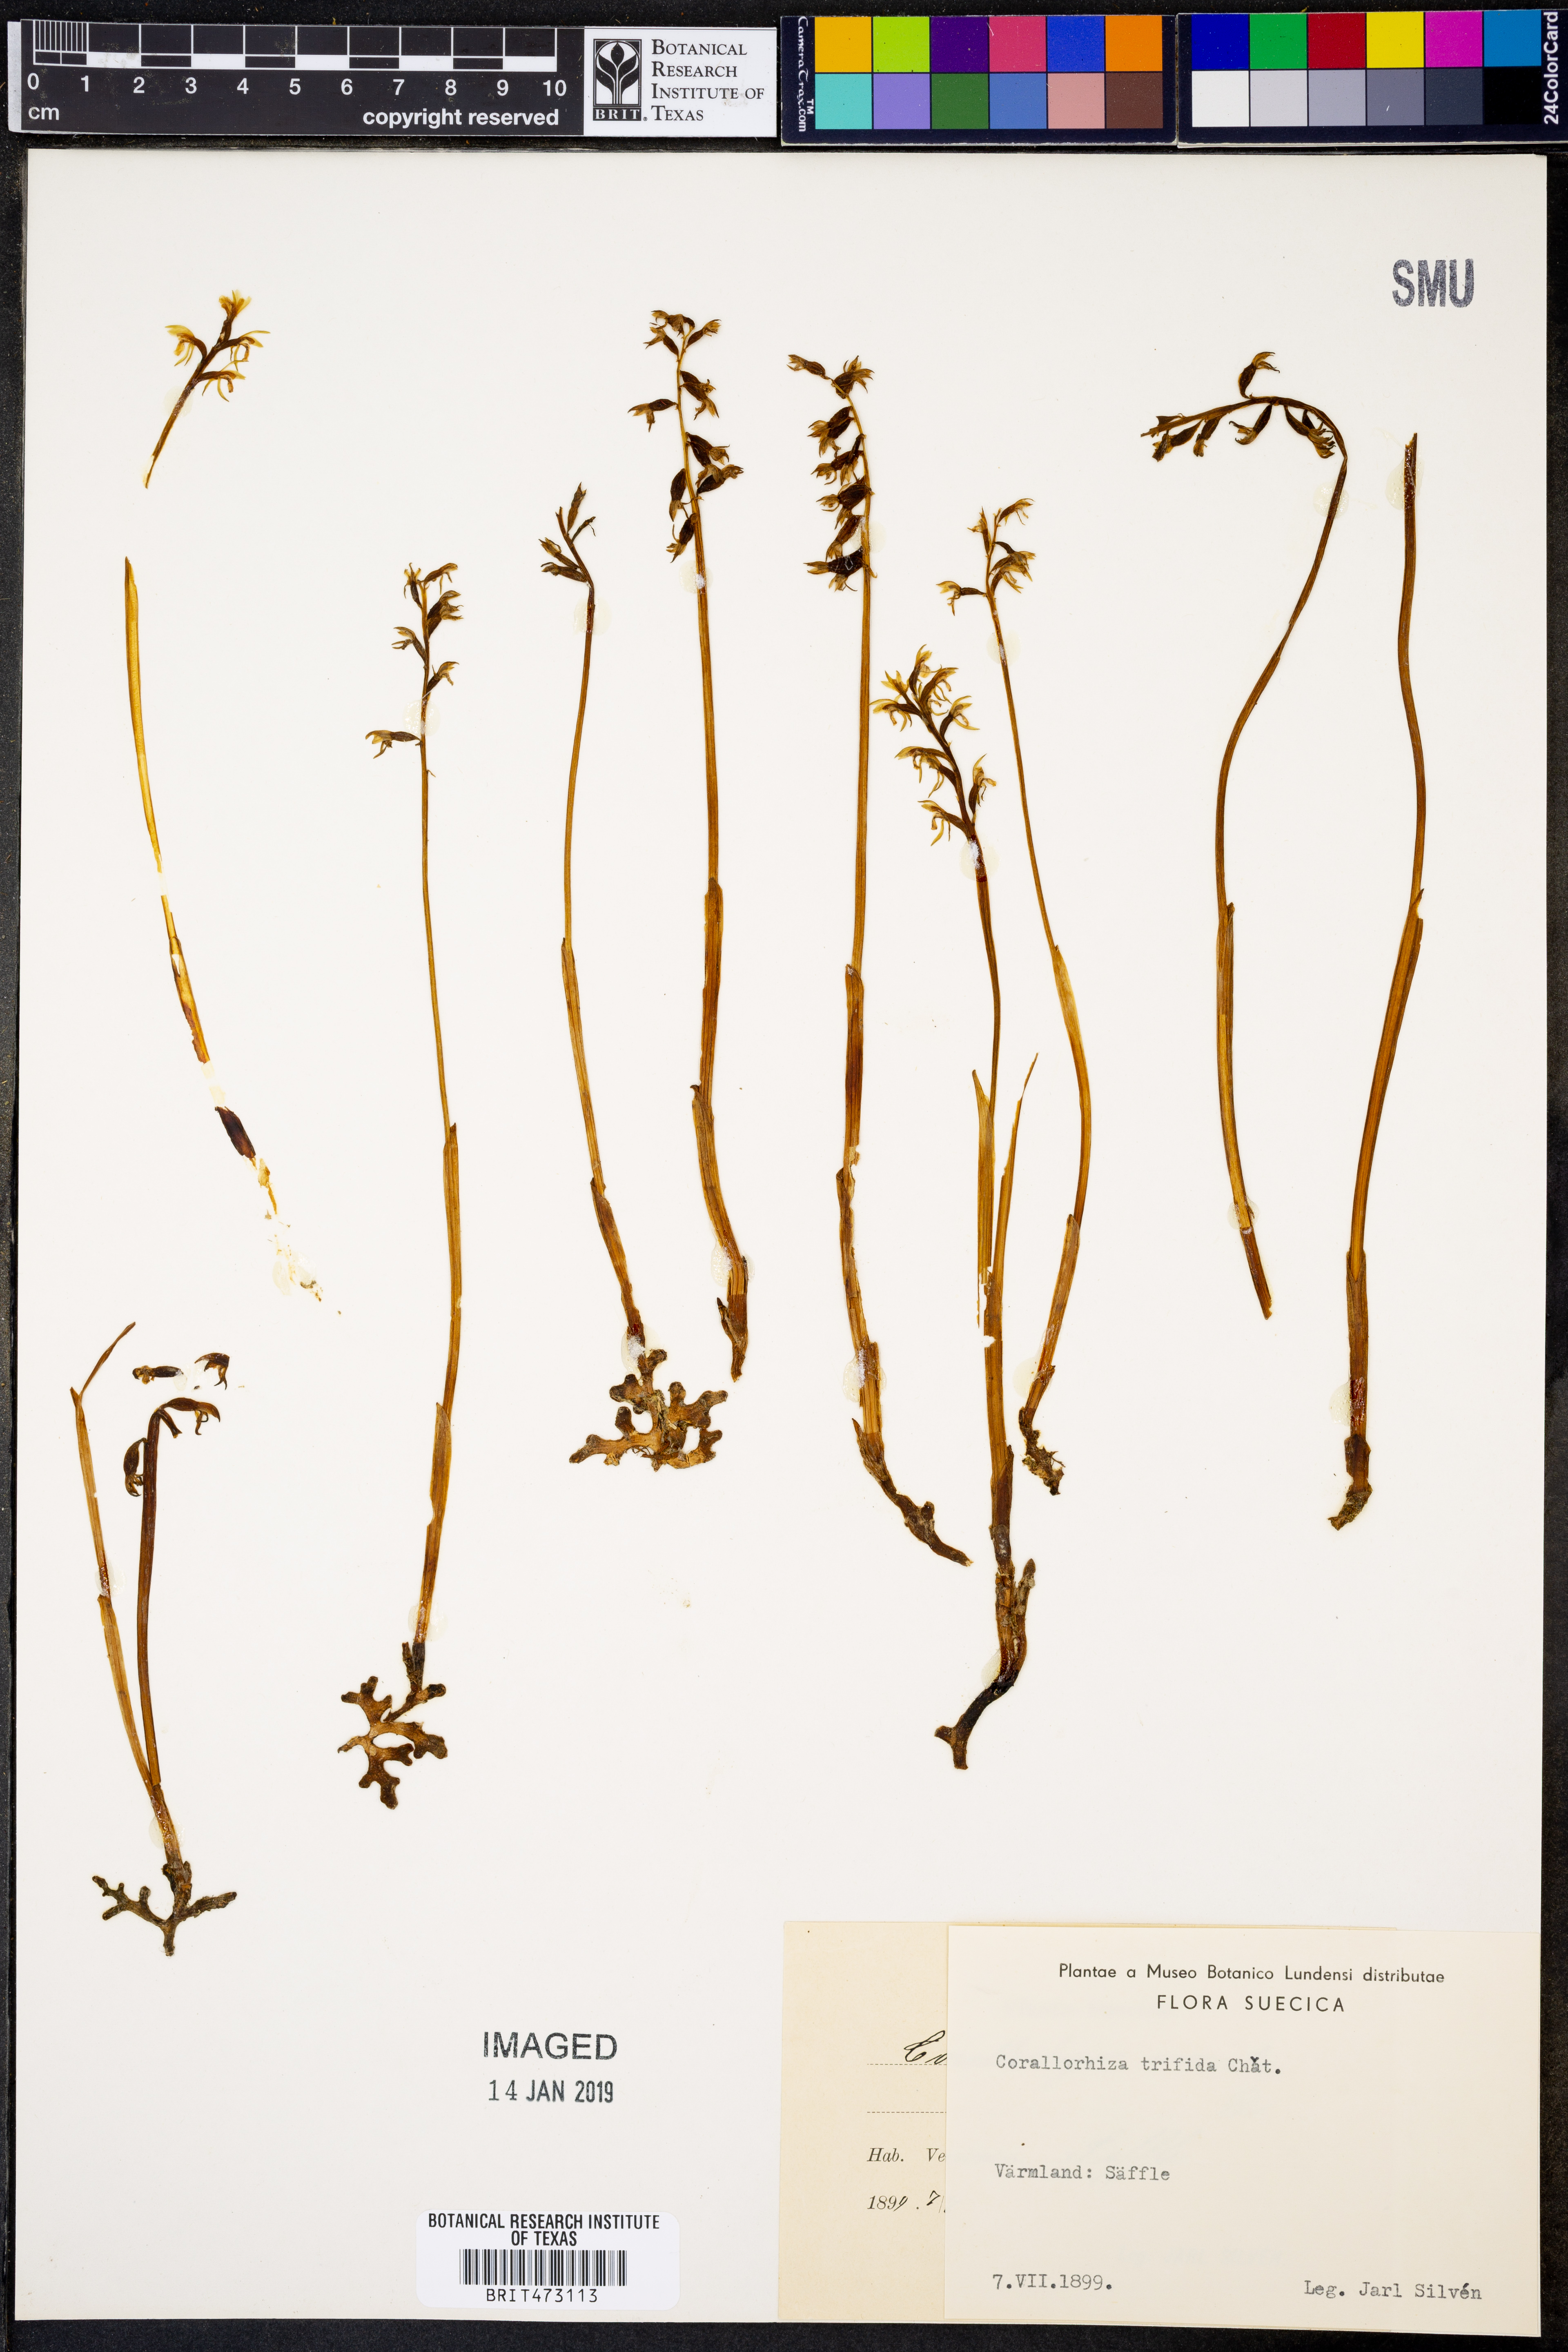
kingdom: Plantae
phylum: Tracheophyta
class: Liliopsida
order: Asparagales
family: Orchidaceae
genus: Corallorhiza
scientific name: Corallorhiza trifida
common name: Yellow coralroot
